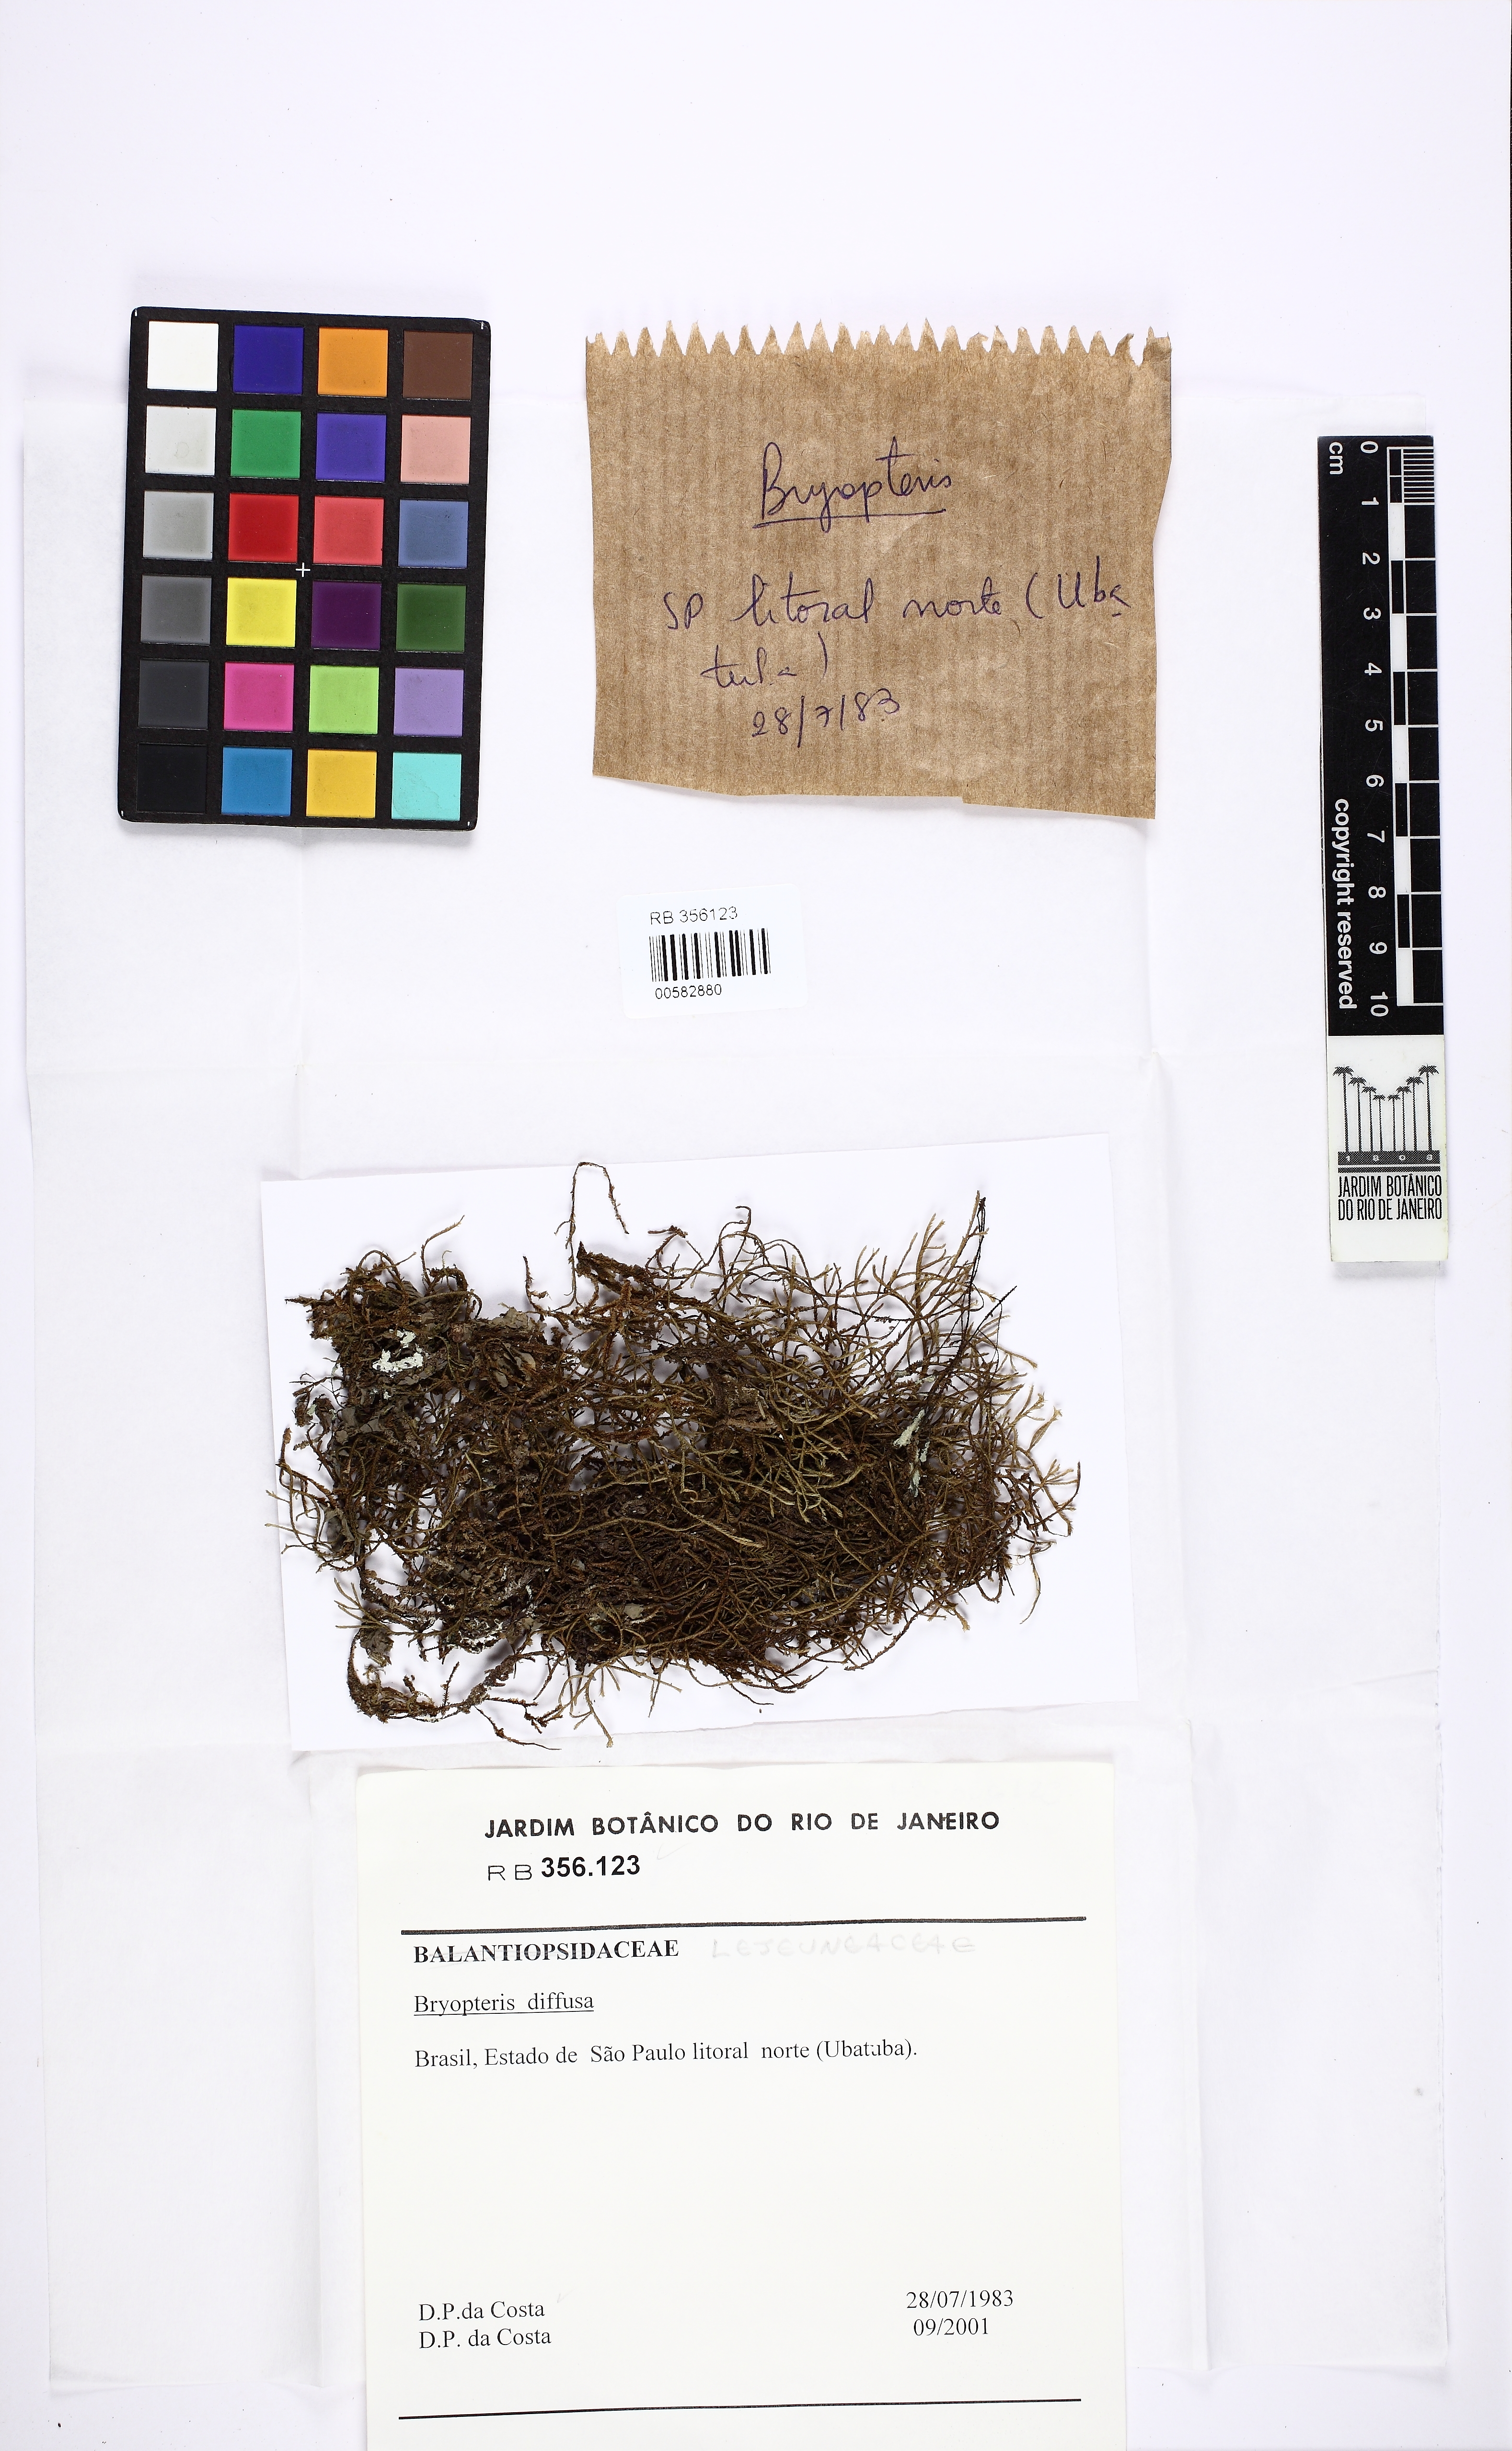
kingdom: Plantae
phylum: Marchantiophyta
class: Jungermanniopsida
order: Porellales
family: Lejeuneaceae
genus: Bryopteris
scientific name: Bryopteris diffusa
